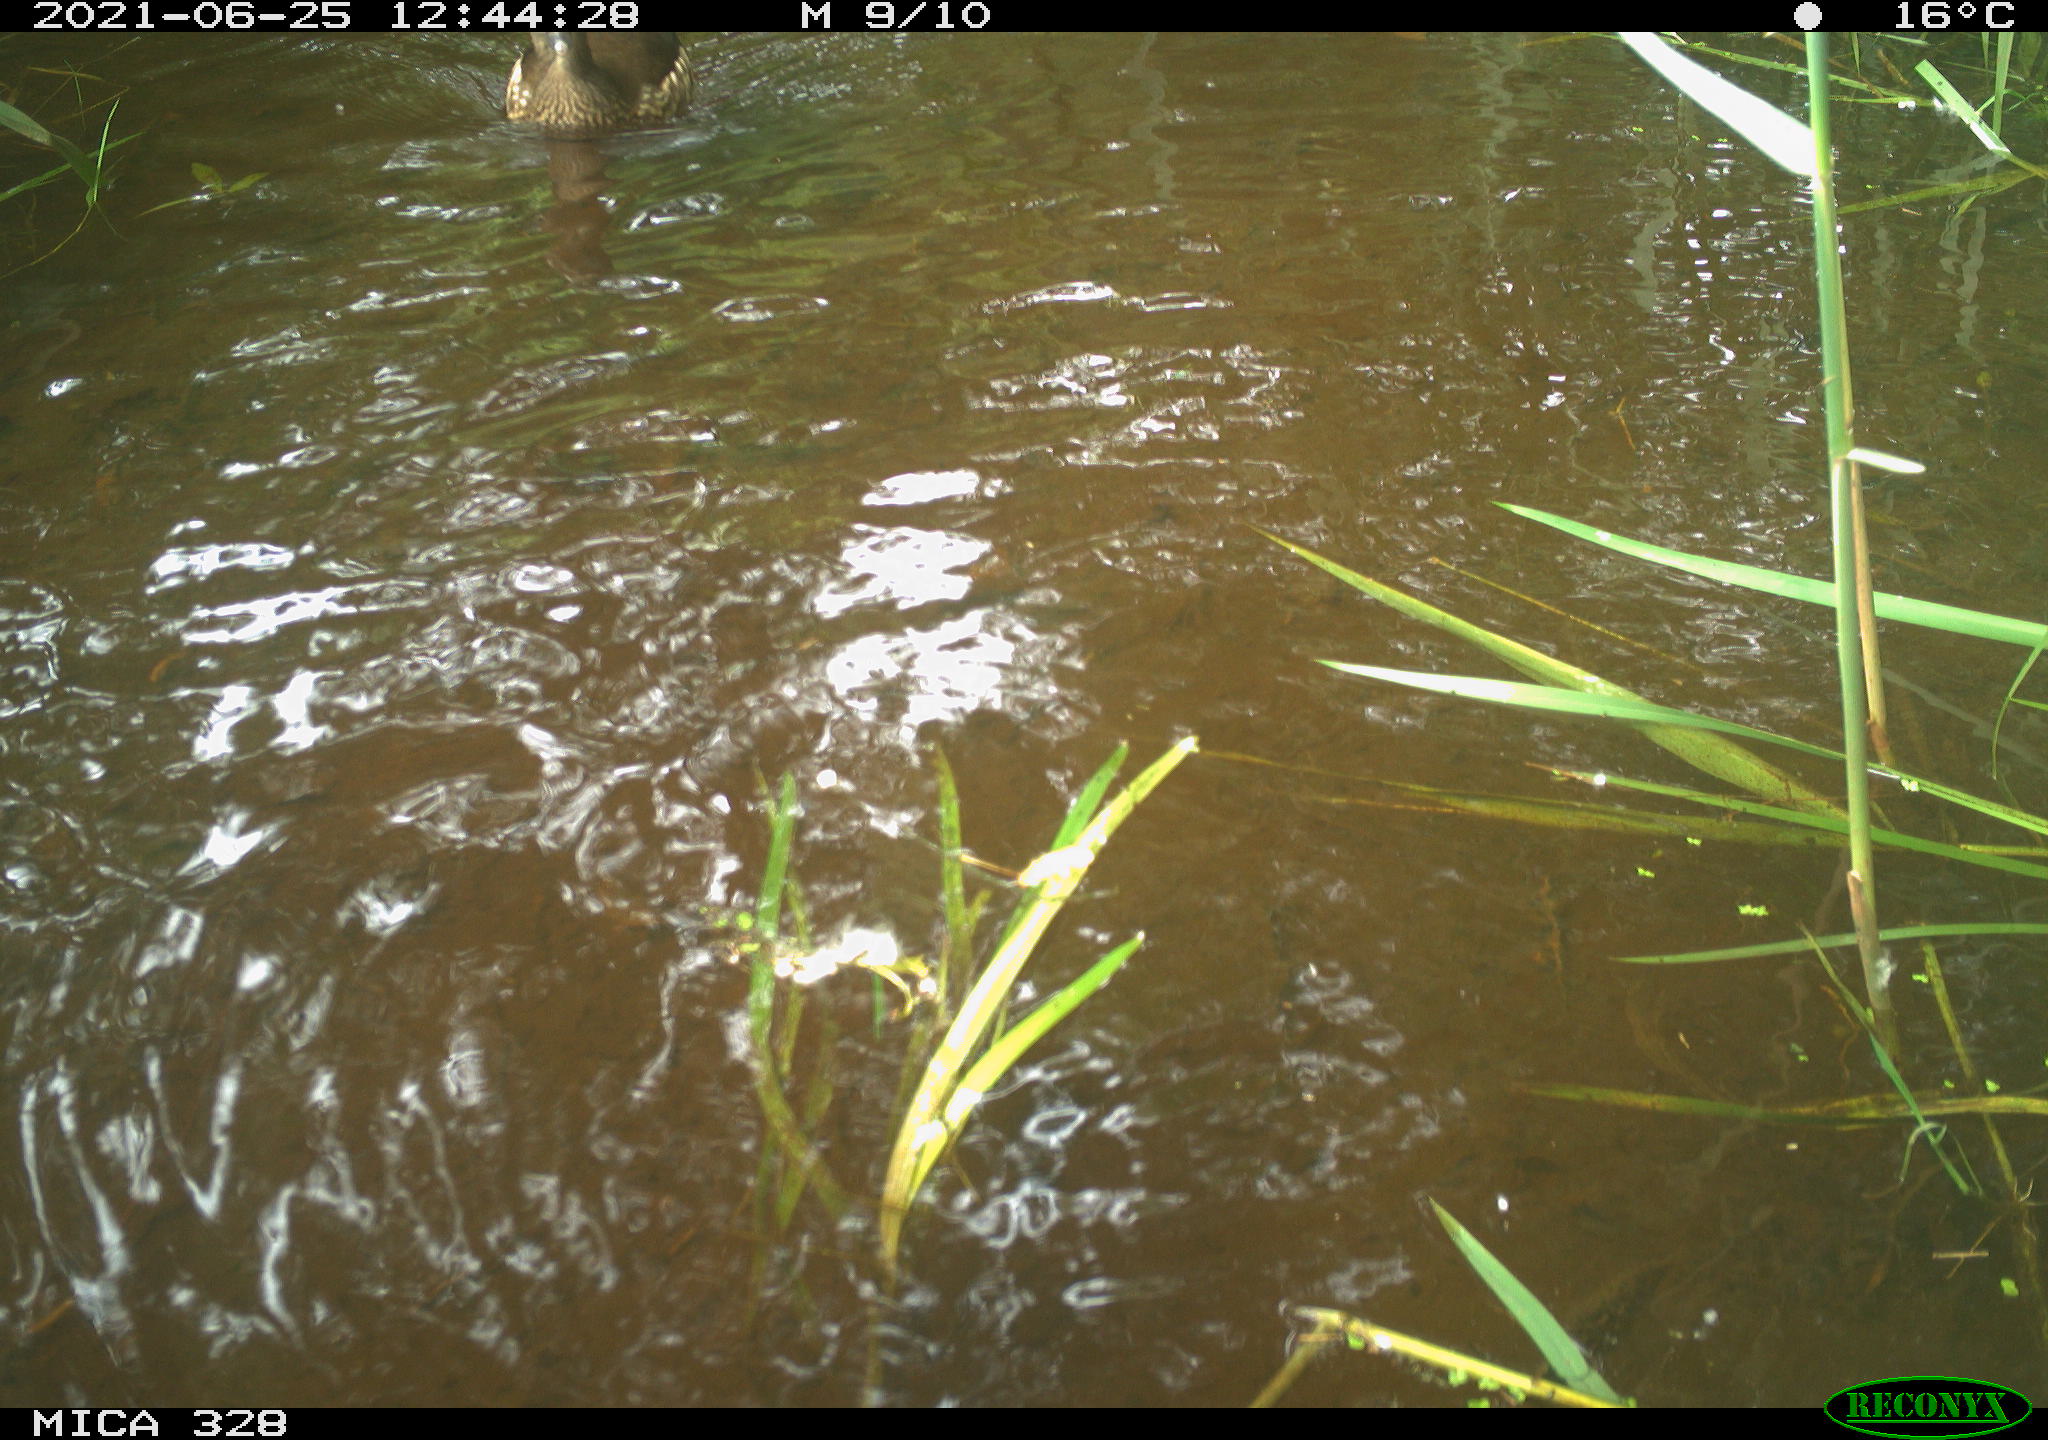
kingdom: Animalia
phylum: Chordata
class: Aves
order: Anseriformes
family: Anatidae
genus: Aix
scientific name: Aix galericulata
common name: Mandarin duck
